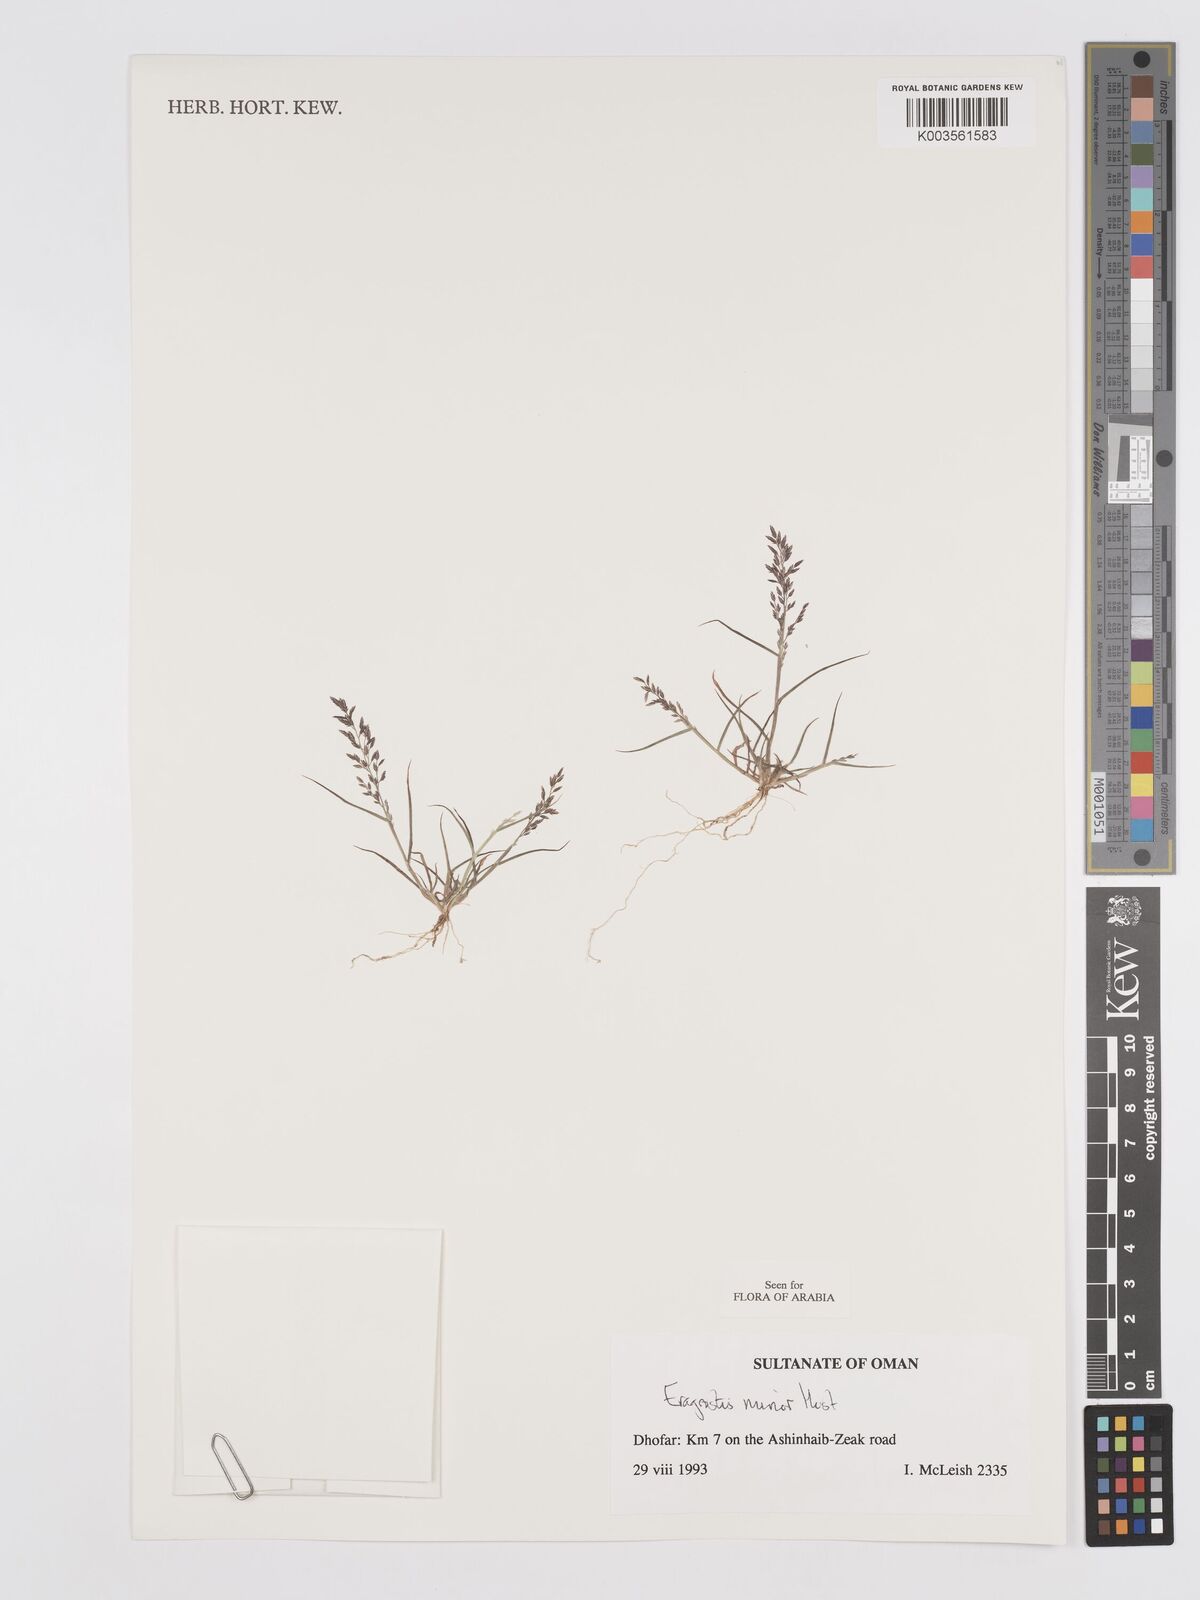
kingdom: Plantae
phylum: Tracheophyta
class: Liliopsida
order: Poales
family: Poaceae
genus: Eragrostis
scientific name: Eragrostis minor
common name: Small love-grass
